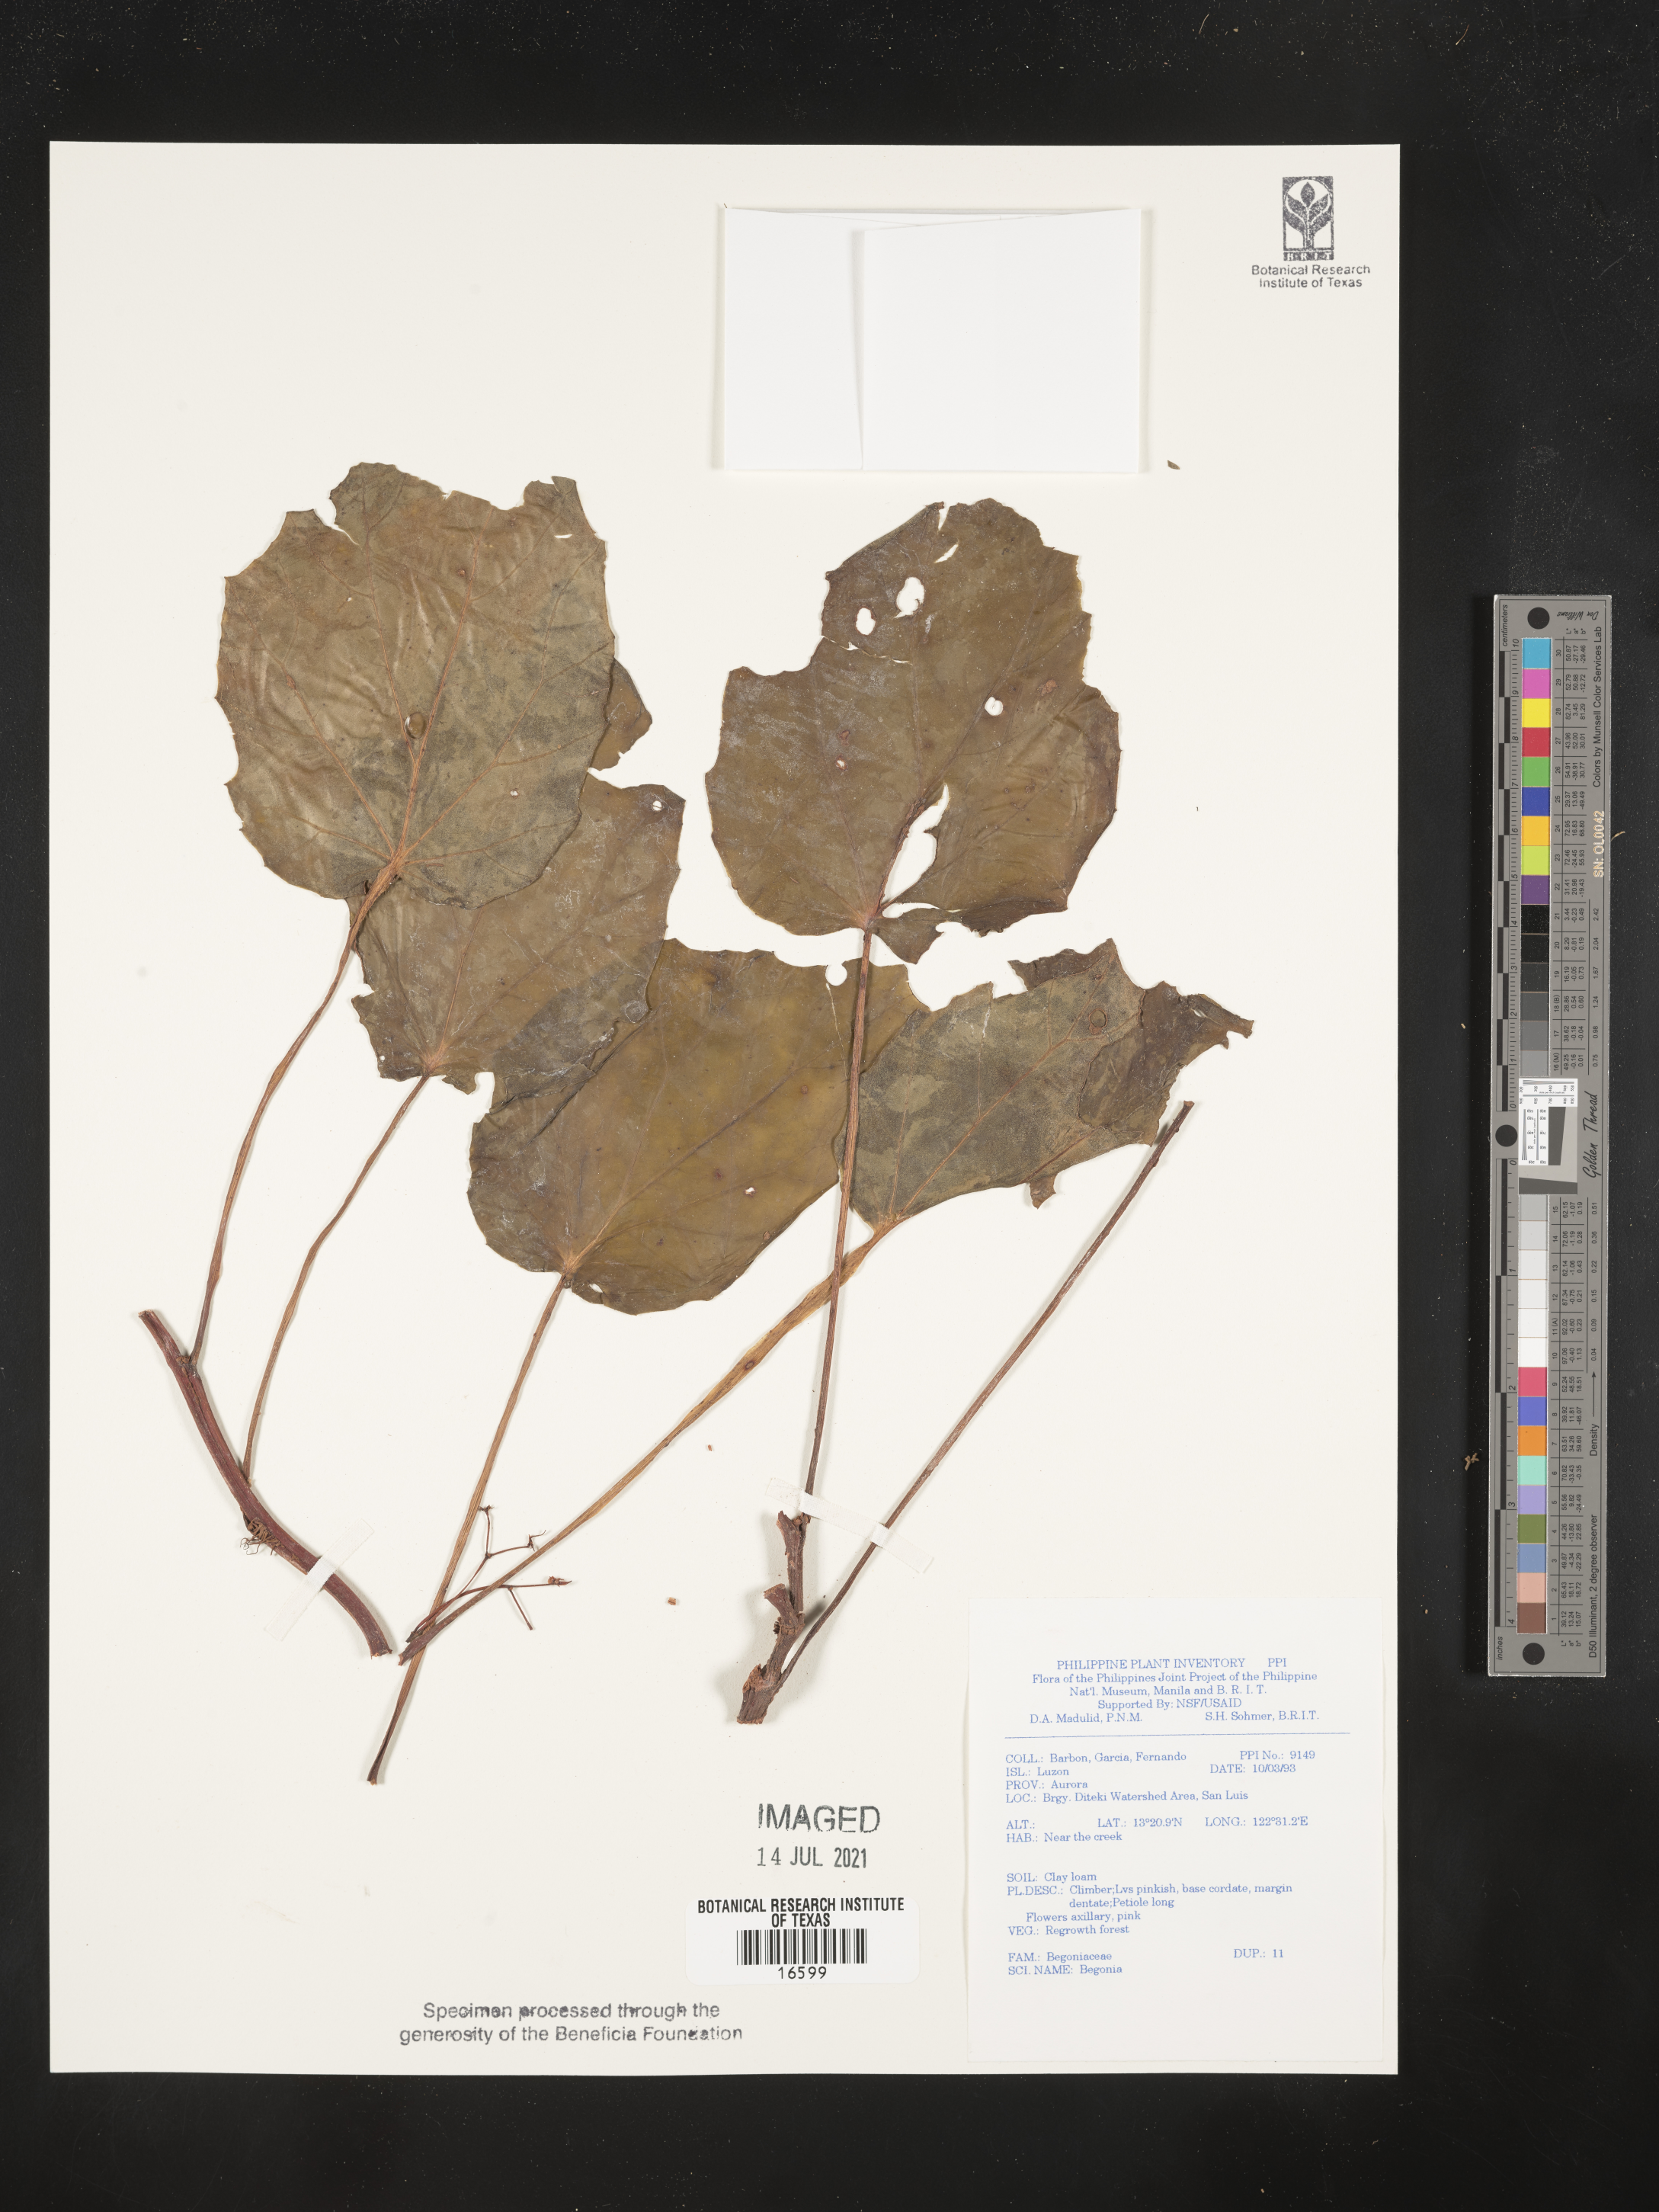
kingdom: Plantae
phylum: Tracheophyta
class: Magnoliopsida
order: Cucurbitales
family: Begoniaceae
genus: Begonia
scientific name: Begonia
